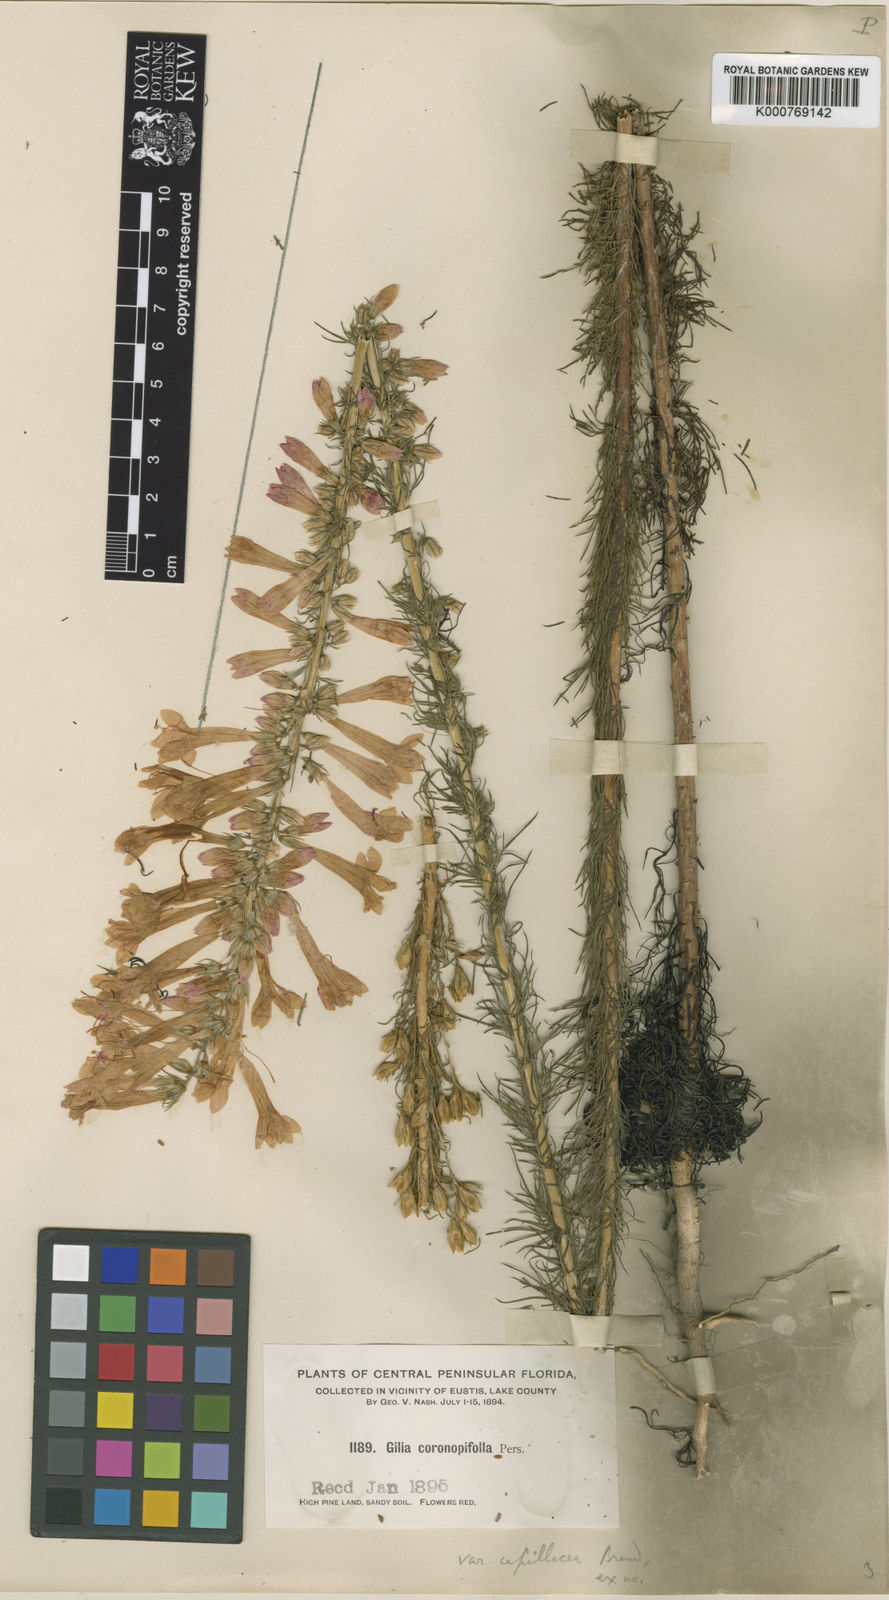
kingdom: Plantae
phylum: Tracheophyta
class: Magnoliopsida
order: Ericales
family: Polemoniaceae
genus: Ipomopsis
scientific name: Ipomopsis rubra
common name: Skyrocket
